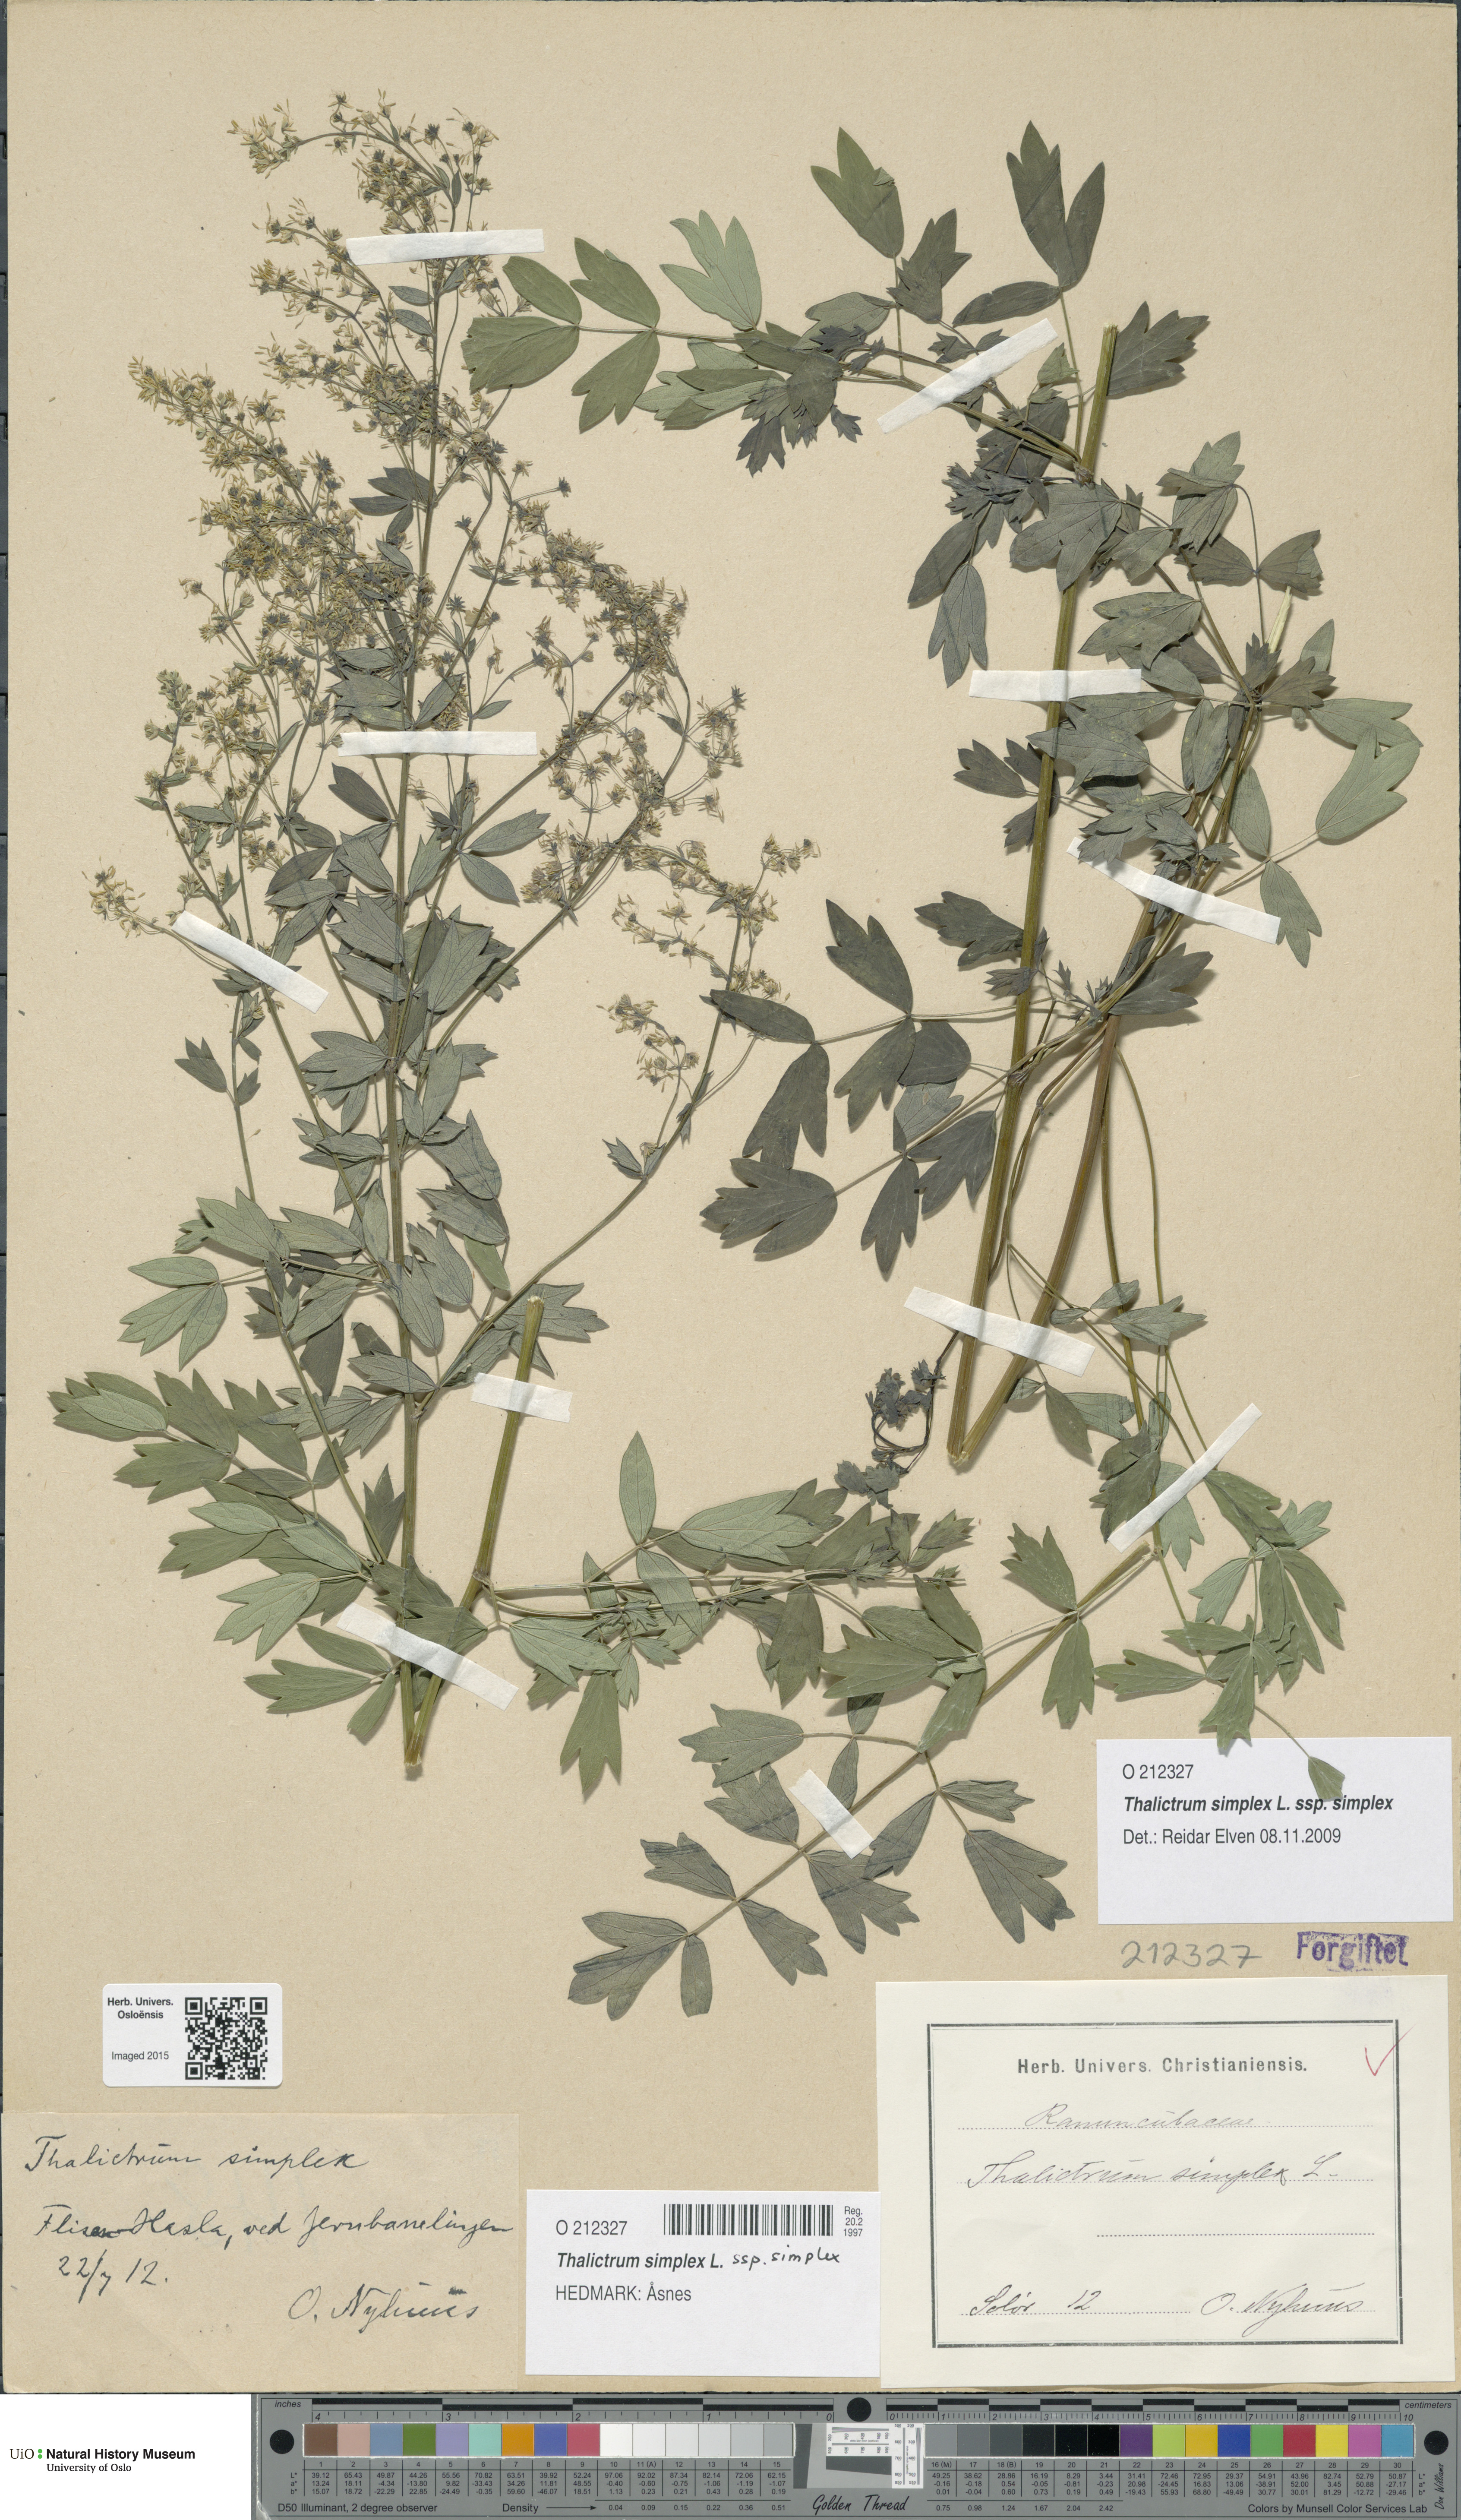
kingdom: Plantae
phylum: Tracheophyta
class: Magnoliopsida
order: Ranunculales
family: Ranunculaceae
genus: Thalictrum
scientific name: Thalictrum simplex
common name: Small meadow-rue
